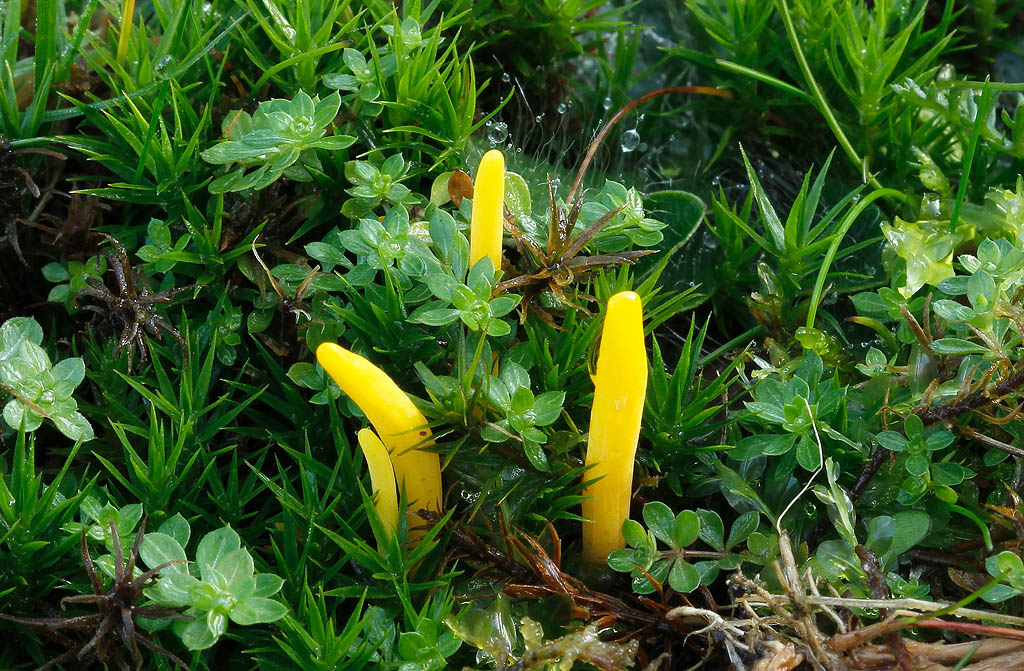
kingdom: Fungi
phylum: Basidiomycota
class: Agaricomycetes
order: Agaricales
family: Clavariaceae
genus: Clavulinopsis
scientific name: Clavulinopsis helvola
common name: orangegul køllesvamp
